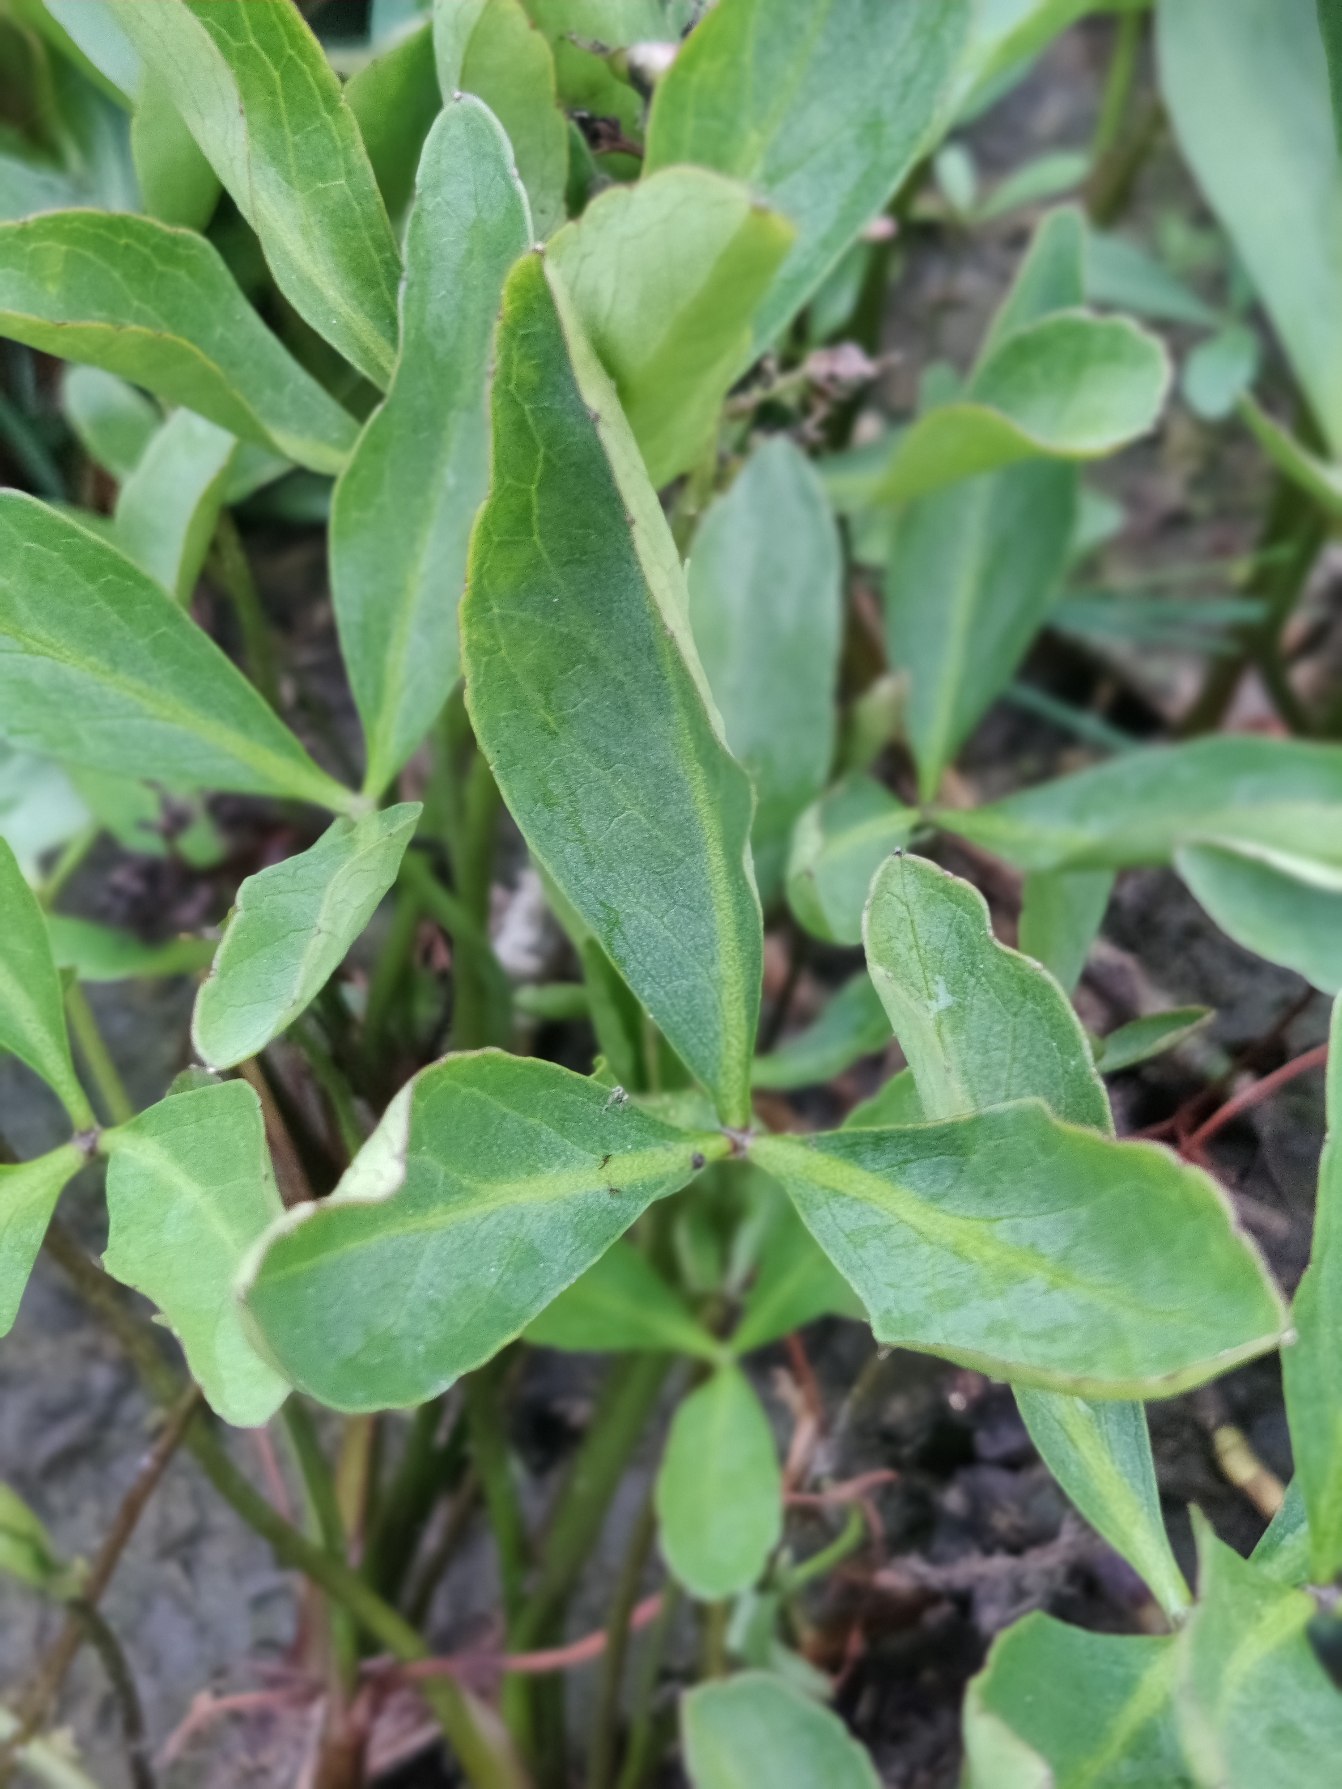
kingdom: Plantae
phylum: Tracheophyta
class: Magnoliopsida
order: Asterales
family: Menyanthaceae
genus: Menyanthes
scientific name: Menyanthes trifoliata
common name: Bukkeblad
